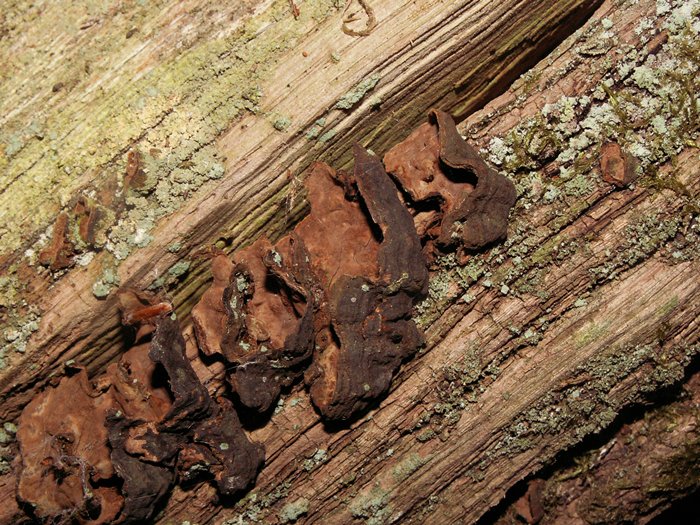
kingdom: Fungi
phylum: Basidiomycota
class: Agaricomycetes
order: Hymenochaetales
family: Hymenochaetaceae
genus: Hymenochaete
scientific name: Hymenochaete rubiginosa
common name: stiv ruslædersvamp
